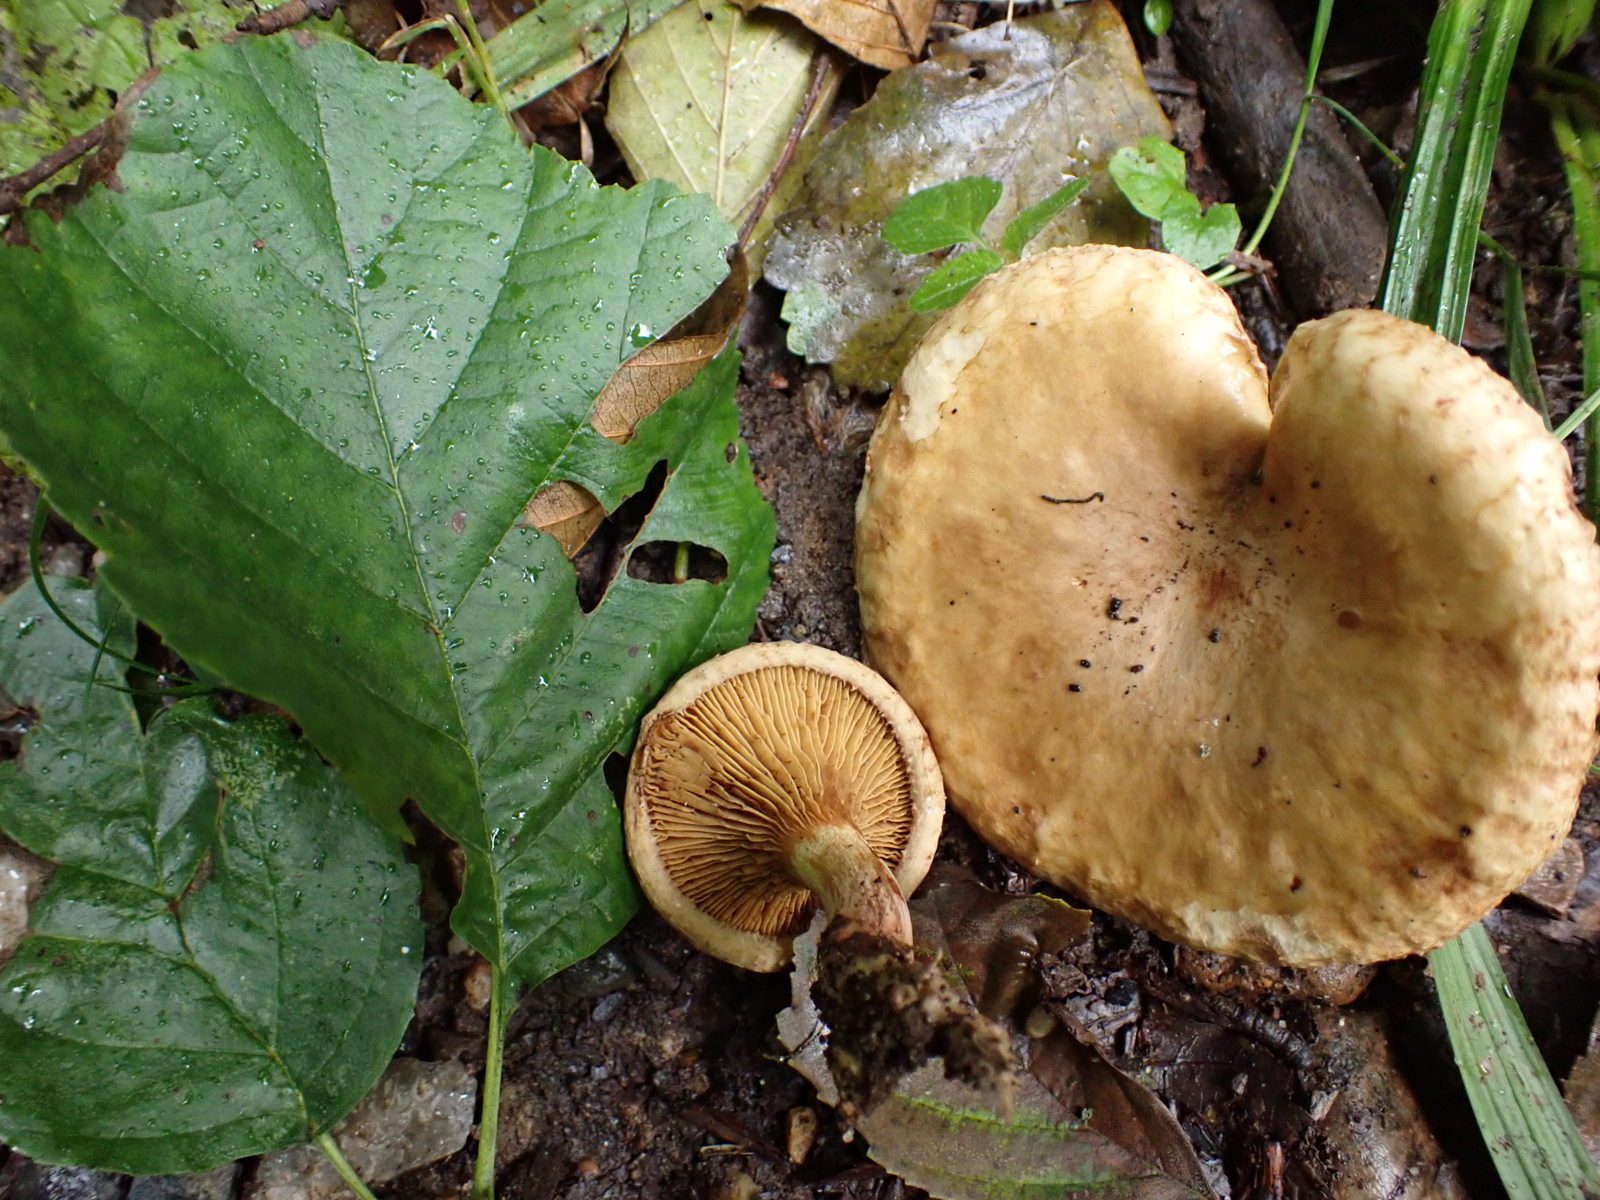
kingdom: Fungi
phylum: Basidiomycota
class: Agaricomycetes
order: Boletales
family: Paxillaceae
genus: Paxillus
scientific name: Paxillus rubicundulus
